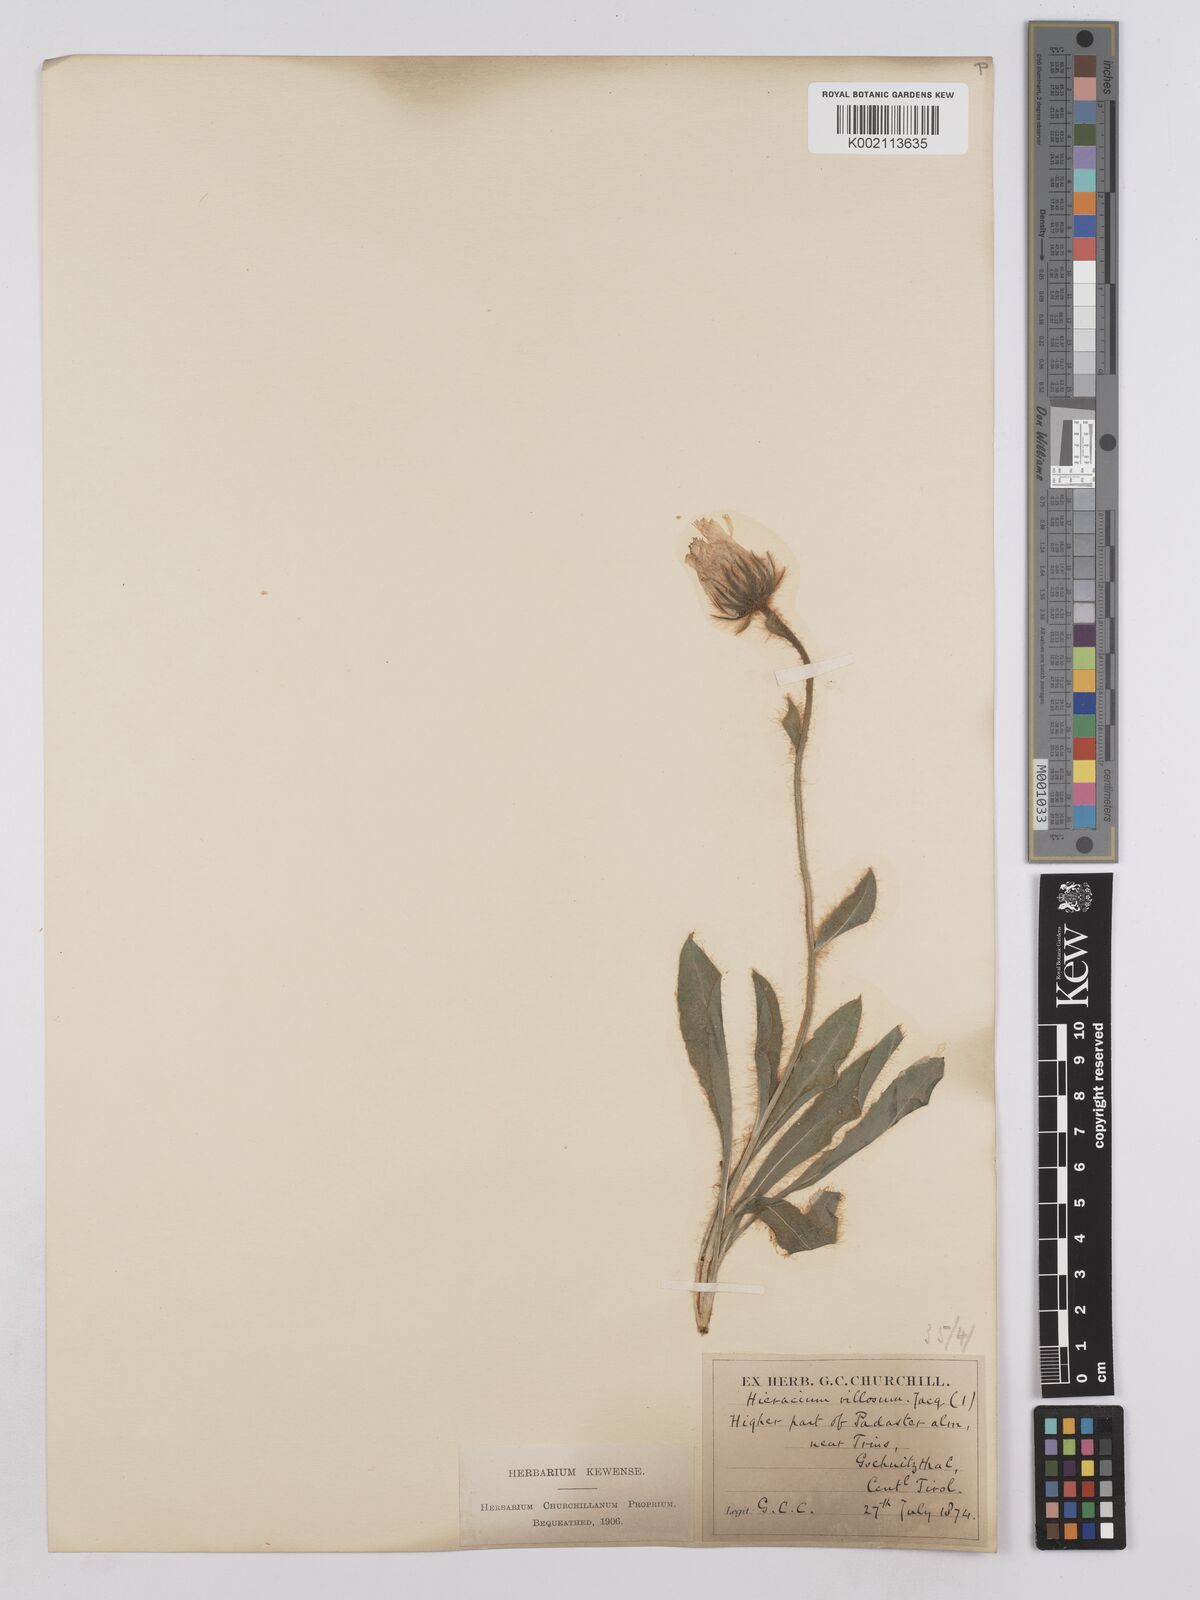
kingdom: Plantae
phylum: Tracheophyta
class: Magnoliopsida
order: Asterales
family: Asteraceae
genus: Hieracium
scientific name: Hieracium villosum
